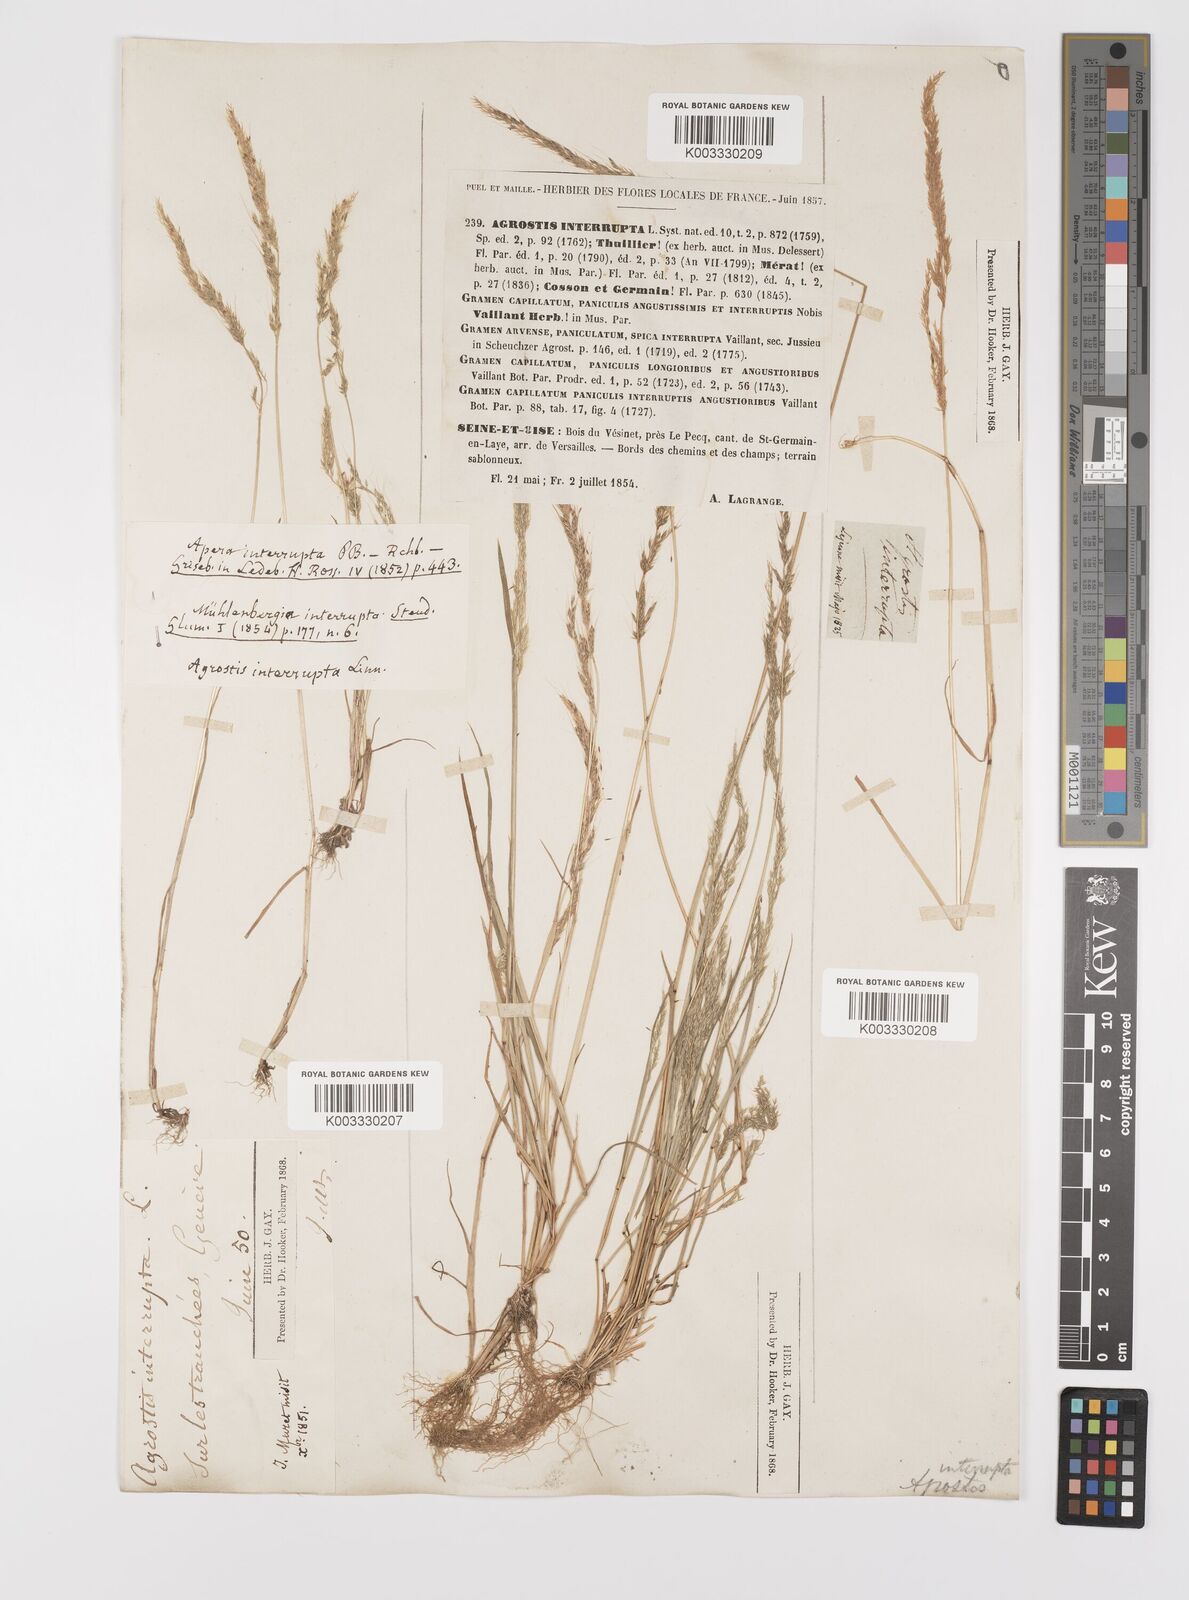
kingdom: Plantae
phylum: Tracheophyta
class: Liliopsida
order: Poales
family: Poaceae
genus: Apera
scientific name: Apera interrupta
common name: Dense silky-bent
